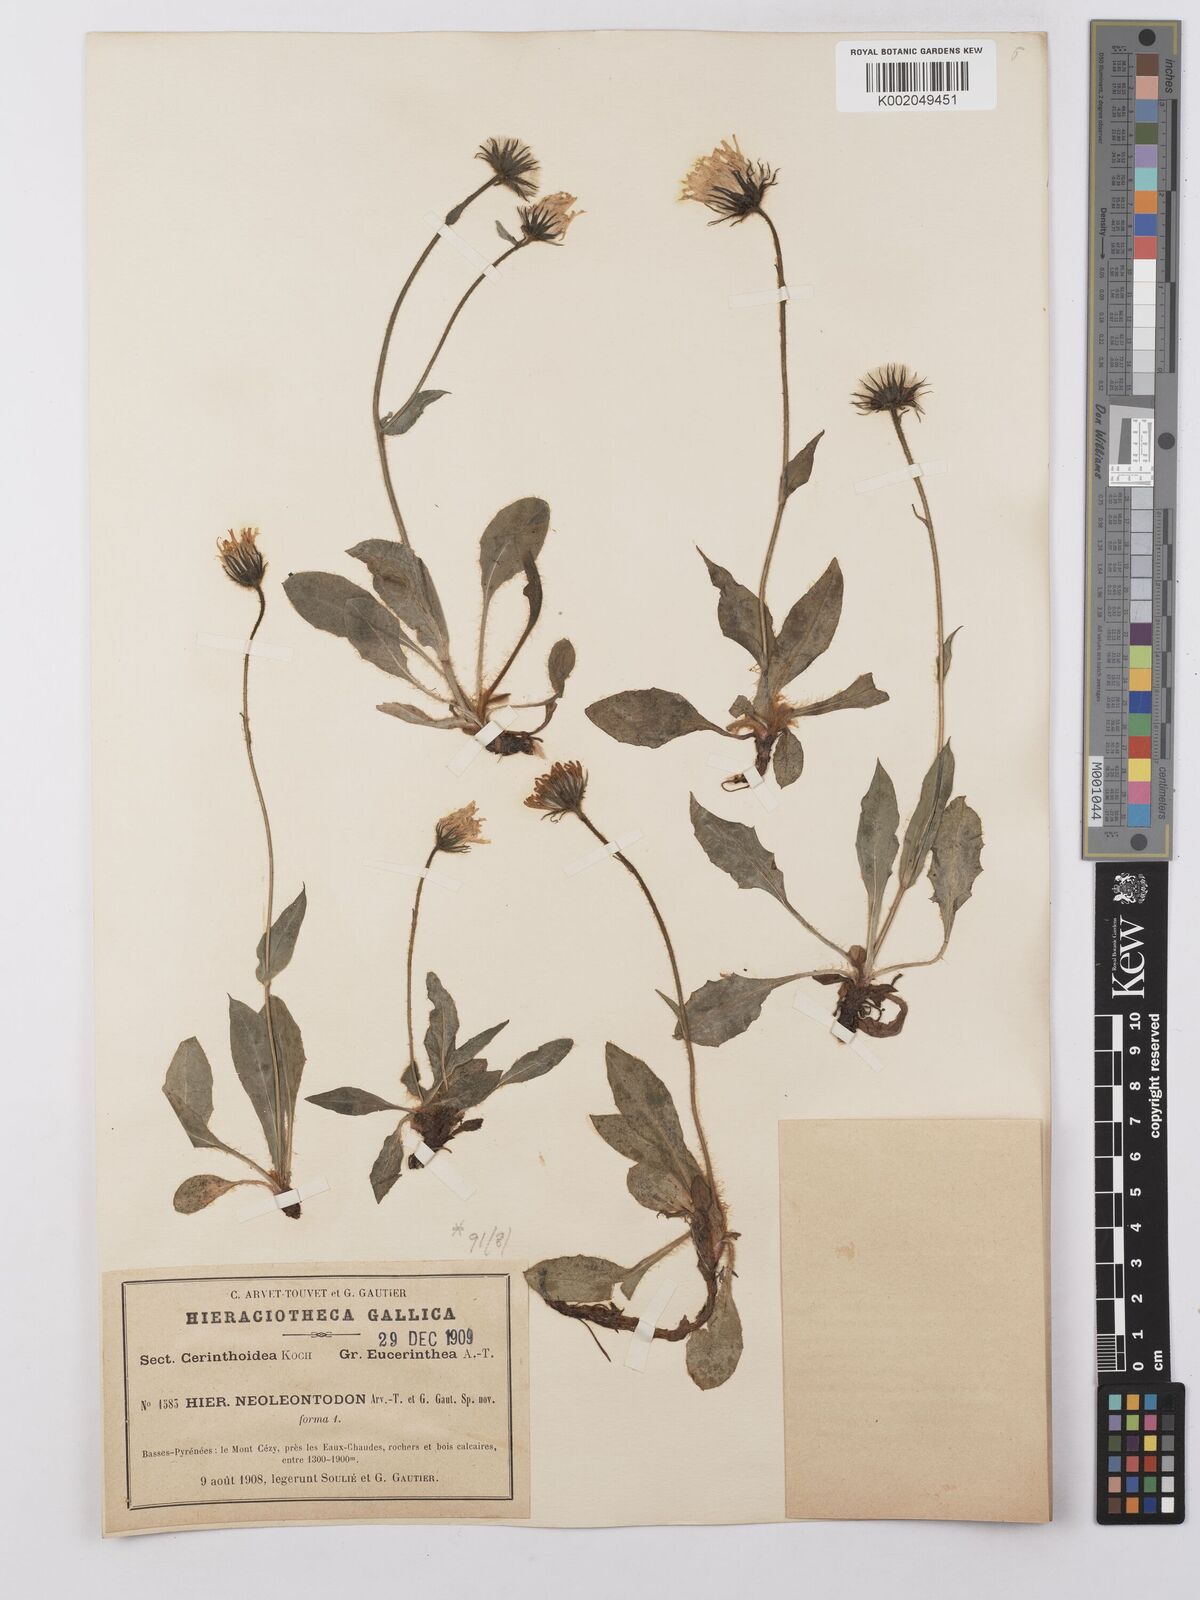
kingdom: Plantae
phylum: Tracheophyta
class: Magnoliopsida
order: Asterales
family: Asteraceae
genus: Hieracium
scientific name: Hieracium ramondii
